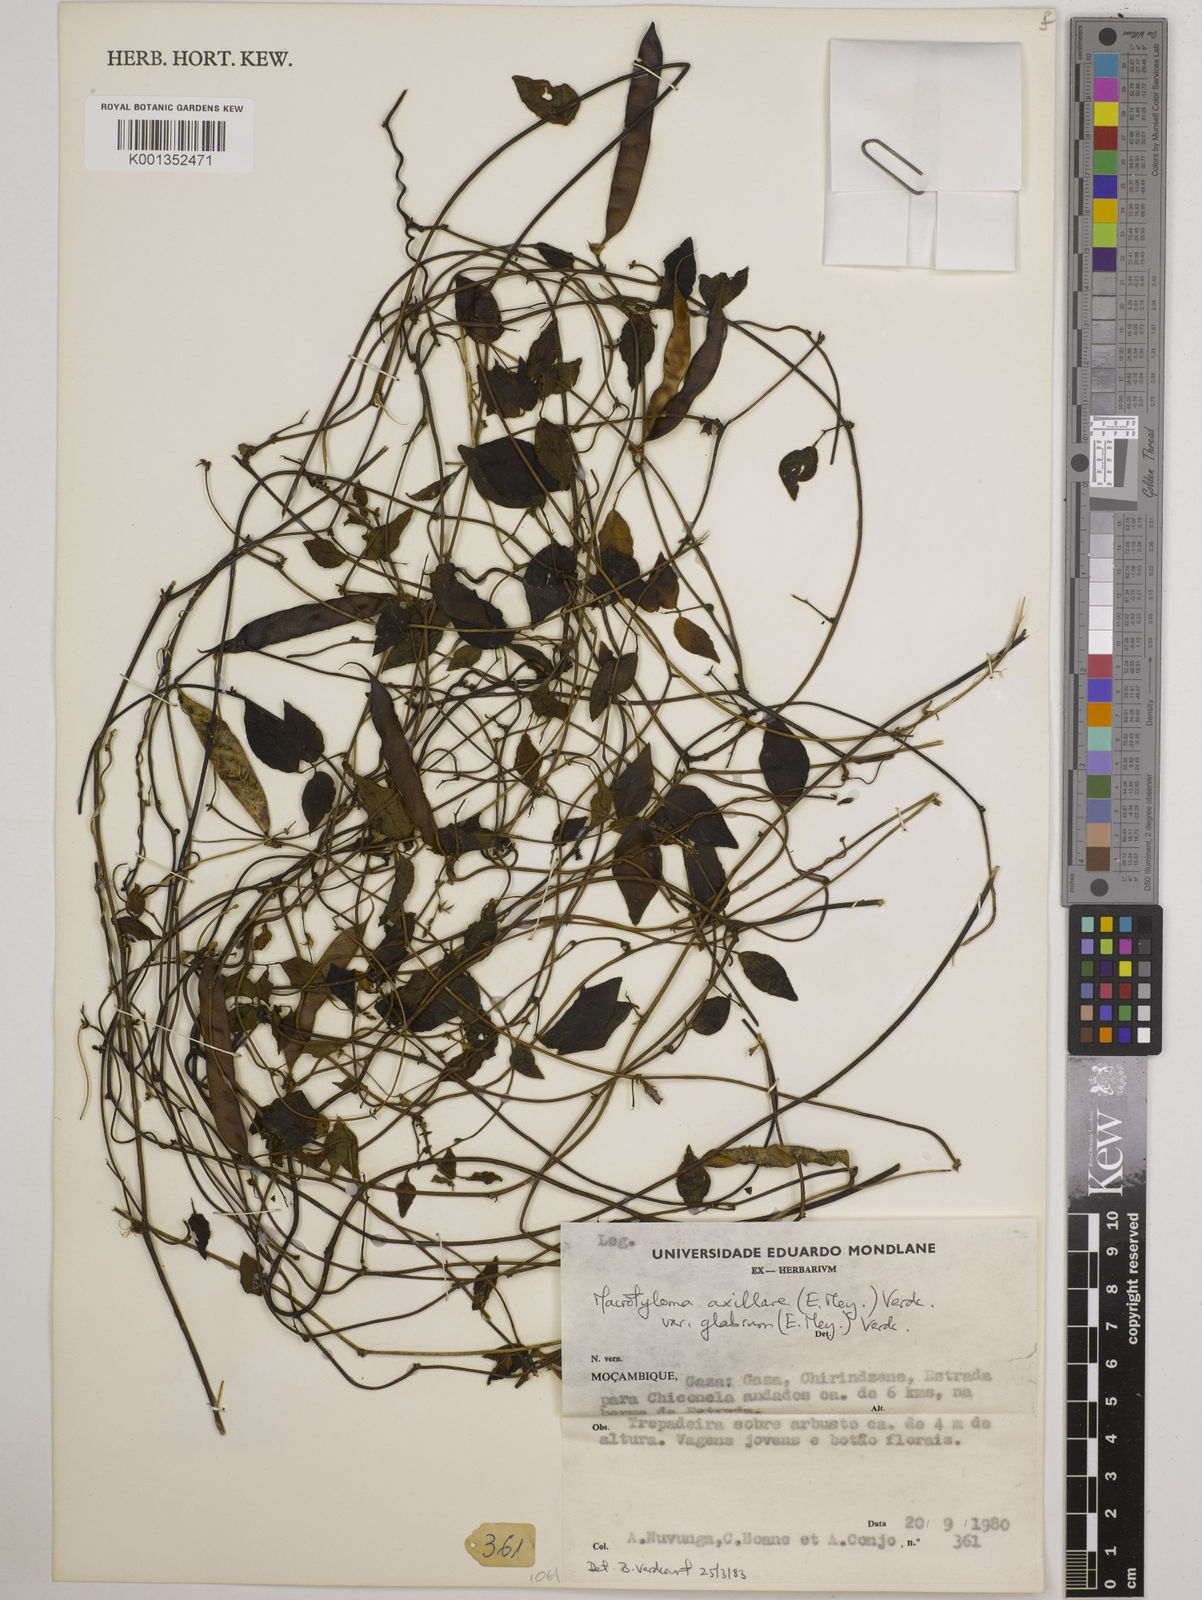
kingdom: Plantae
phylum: Tracheophyta
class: Magnoliopsida
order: Fabales
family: Fabaceae
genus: Macrotyloma
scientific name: Macrotyloma
